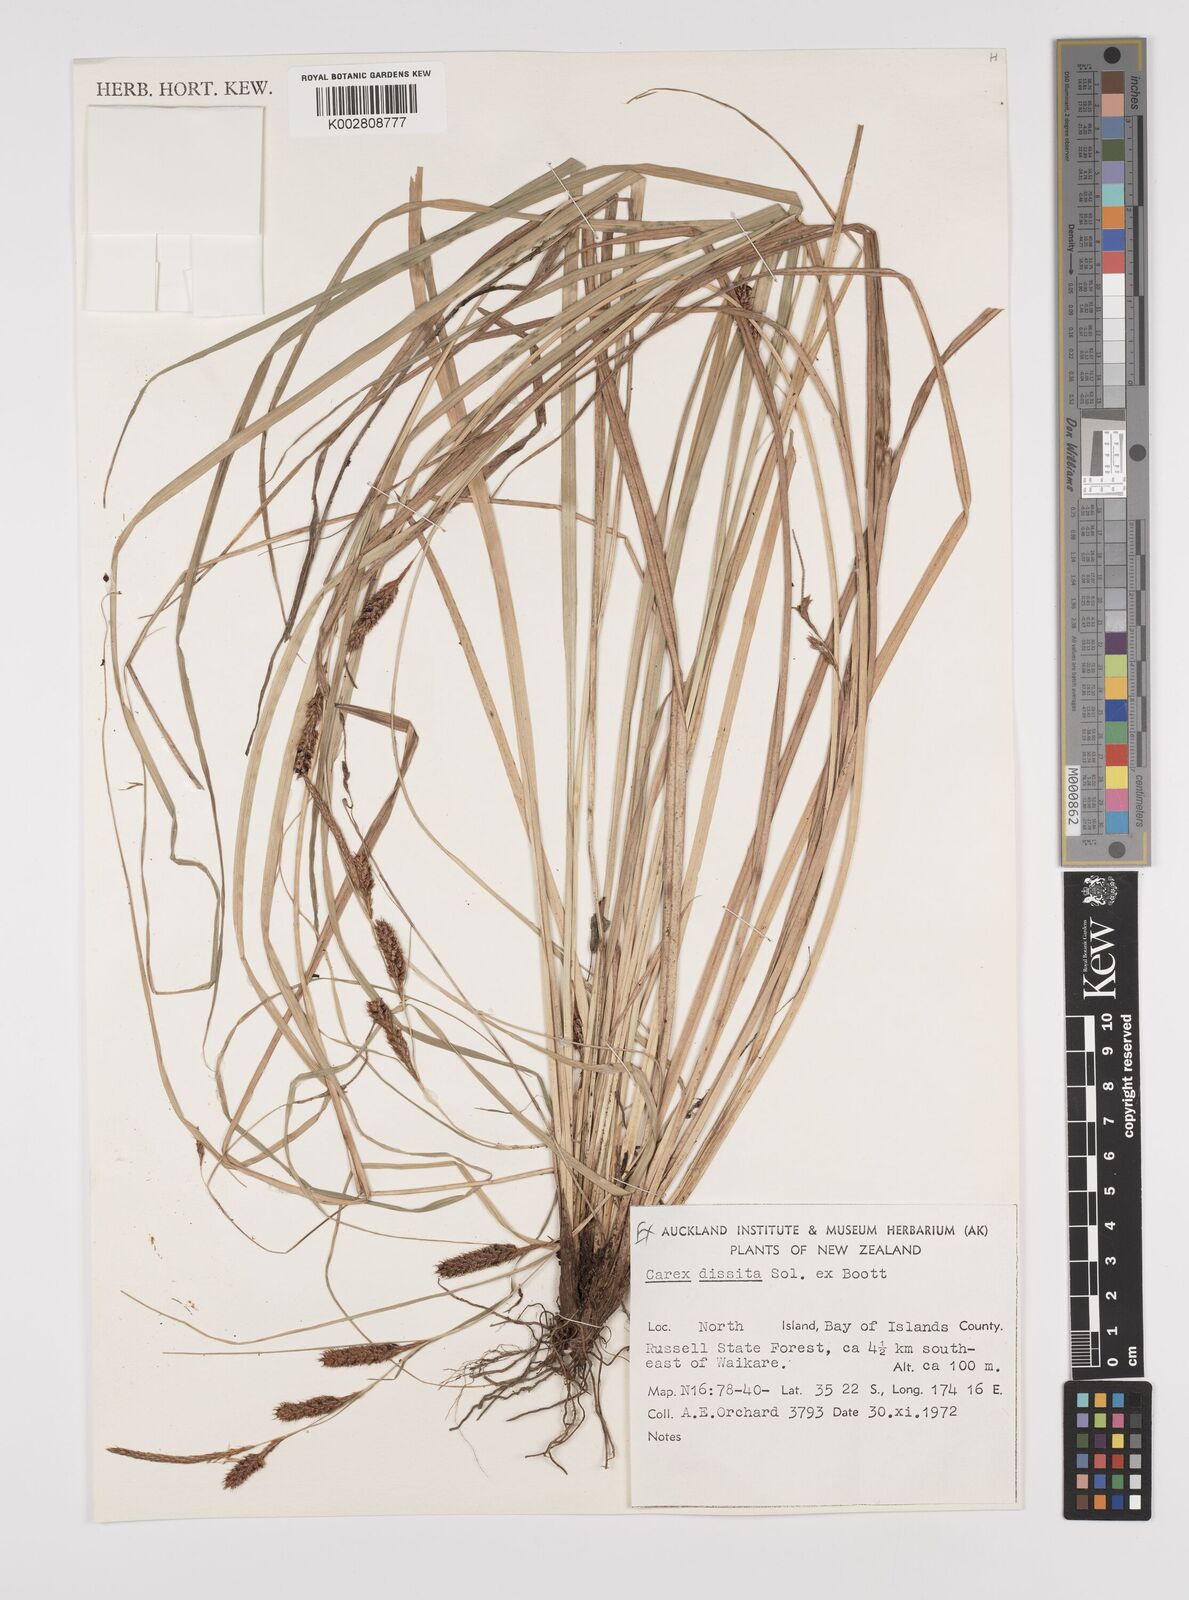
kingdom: Plantae
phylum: Tracheophyta
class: Liliopsida
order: Poales
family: Cyperaceae
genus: Carex
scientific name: Carex dissita
